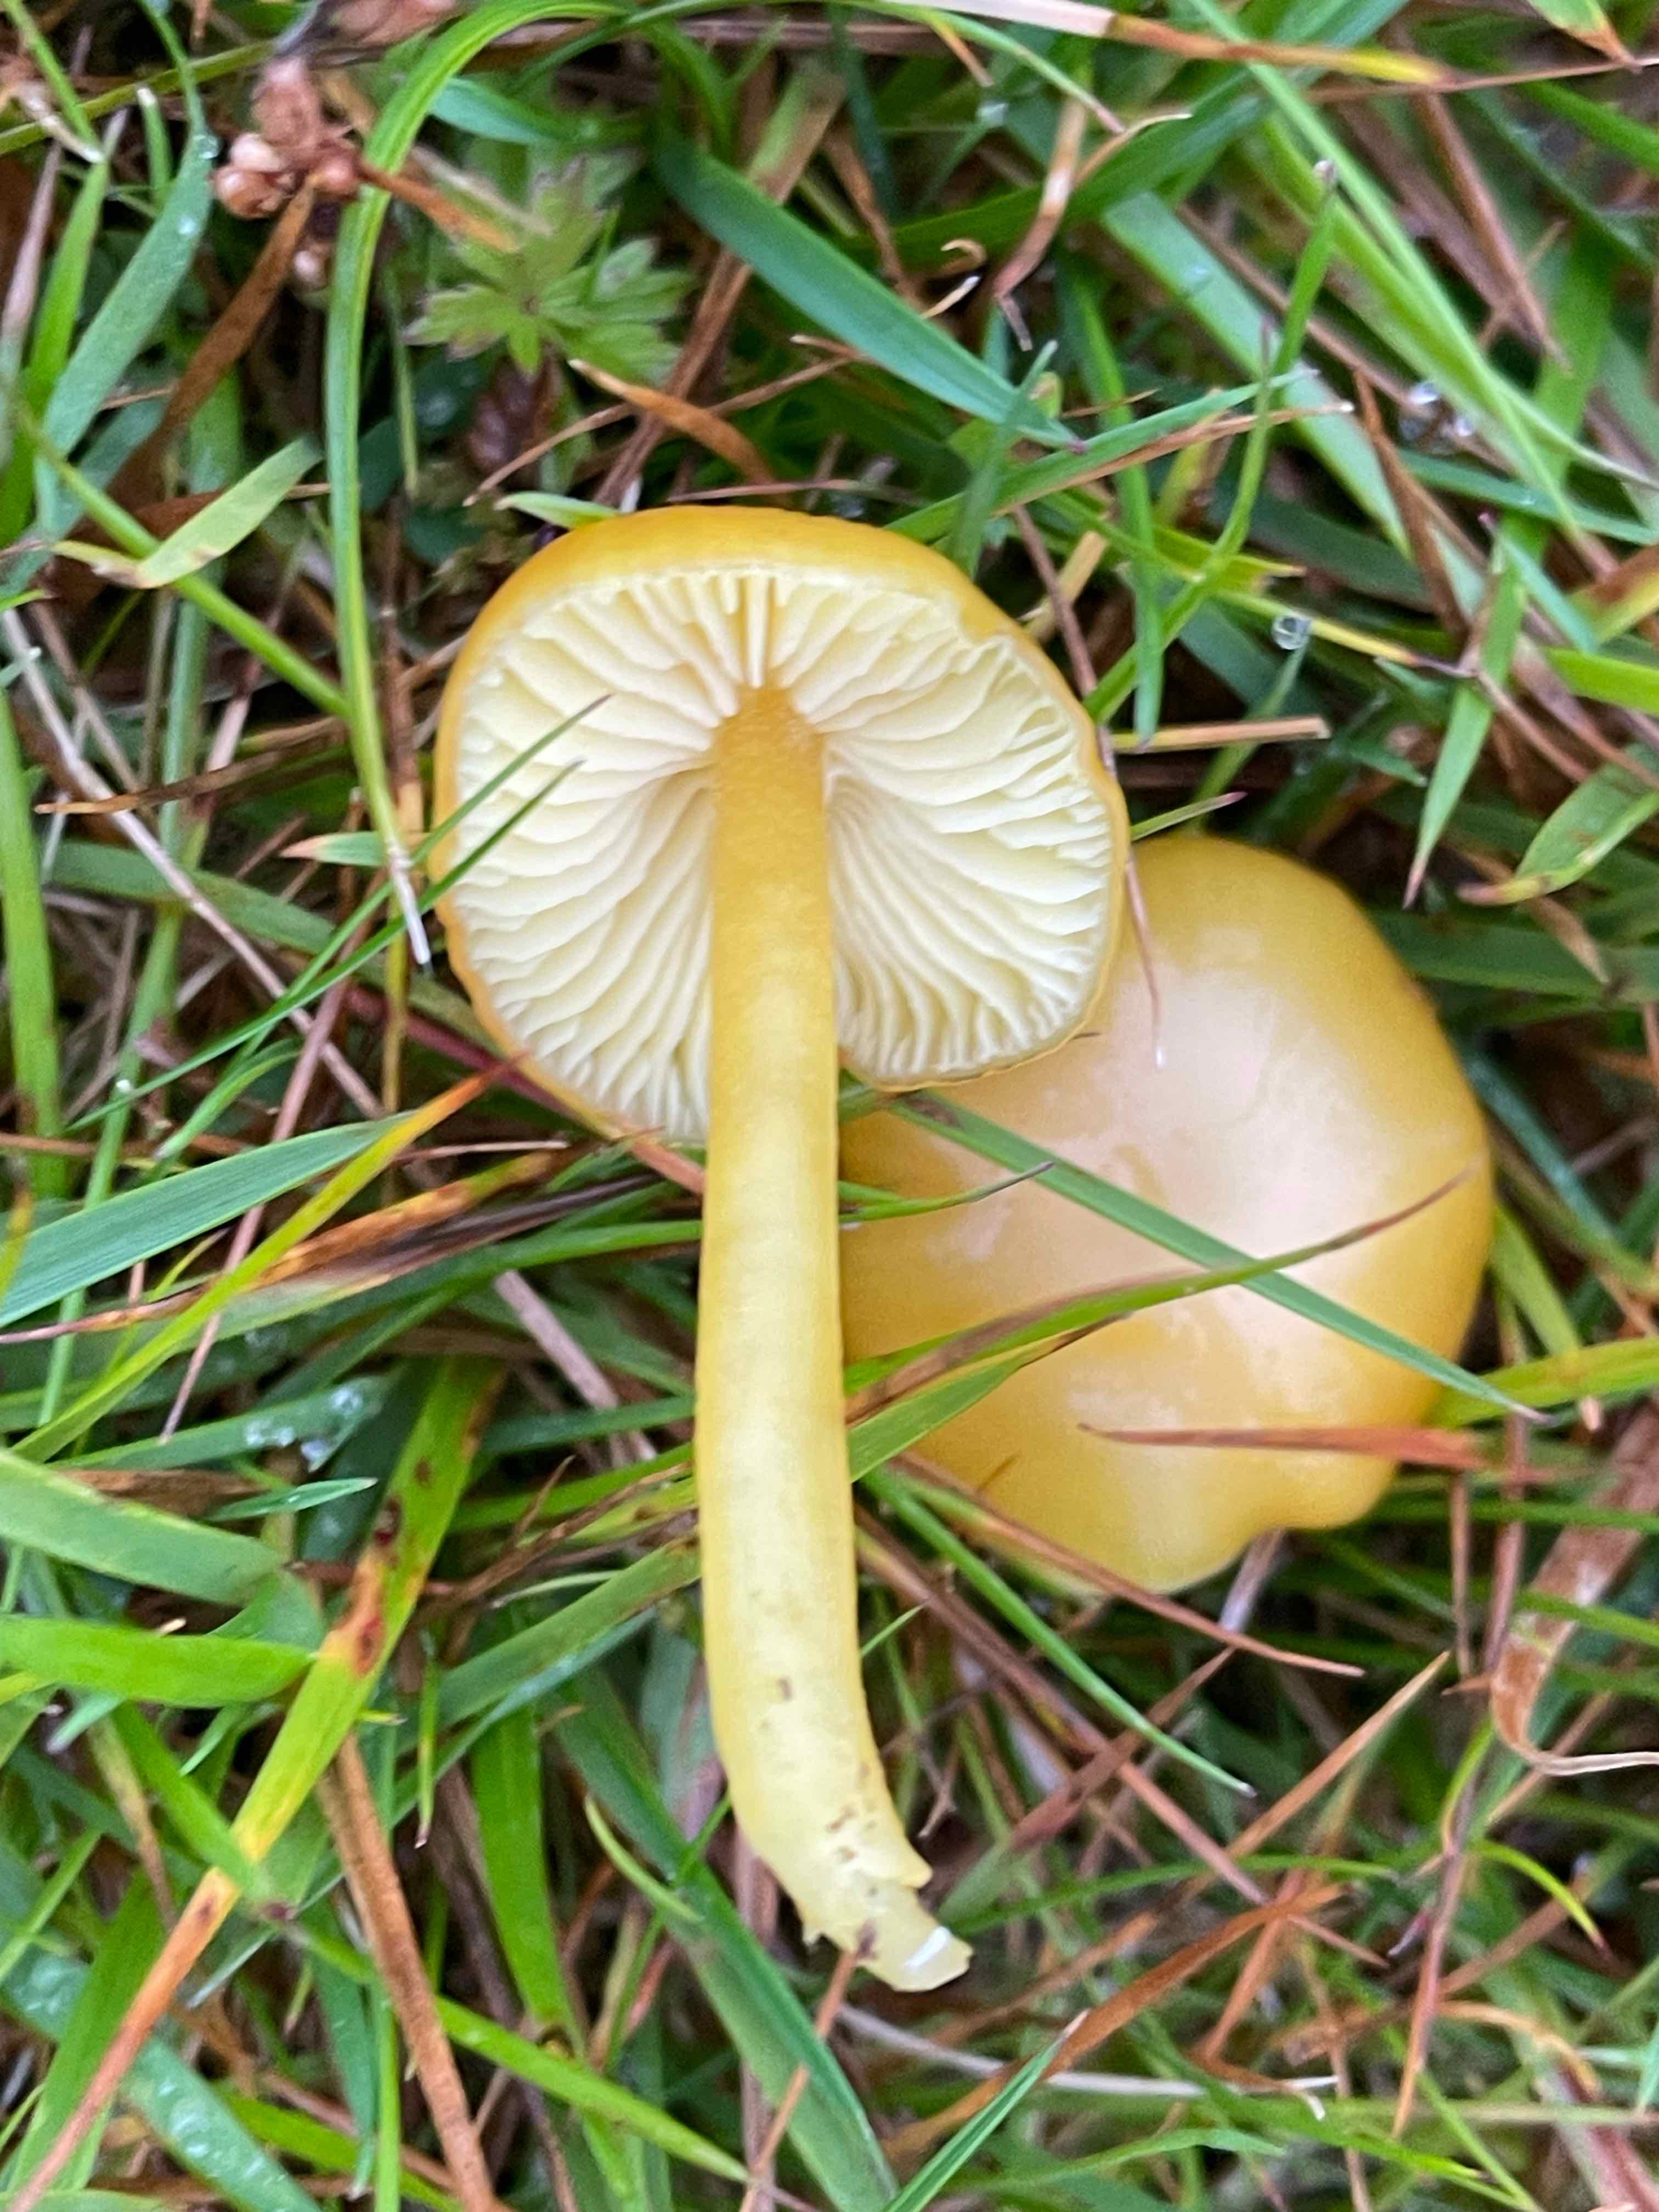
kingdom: Fungi
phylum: Basidiomycota
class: Agaricomycetes
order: Agaricales
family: Hygrophoraceae
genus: Hygrocybe
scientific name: Hygrocybe chlorophana
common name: gul vokshat
